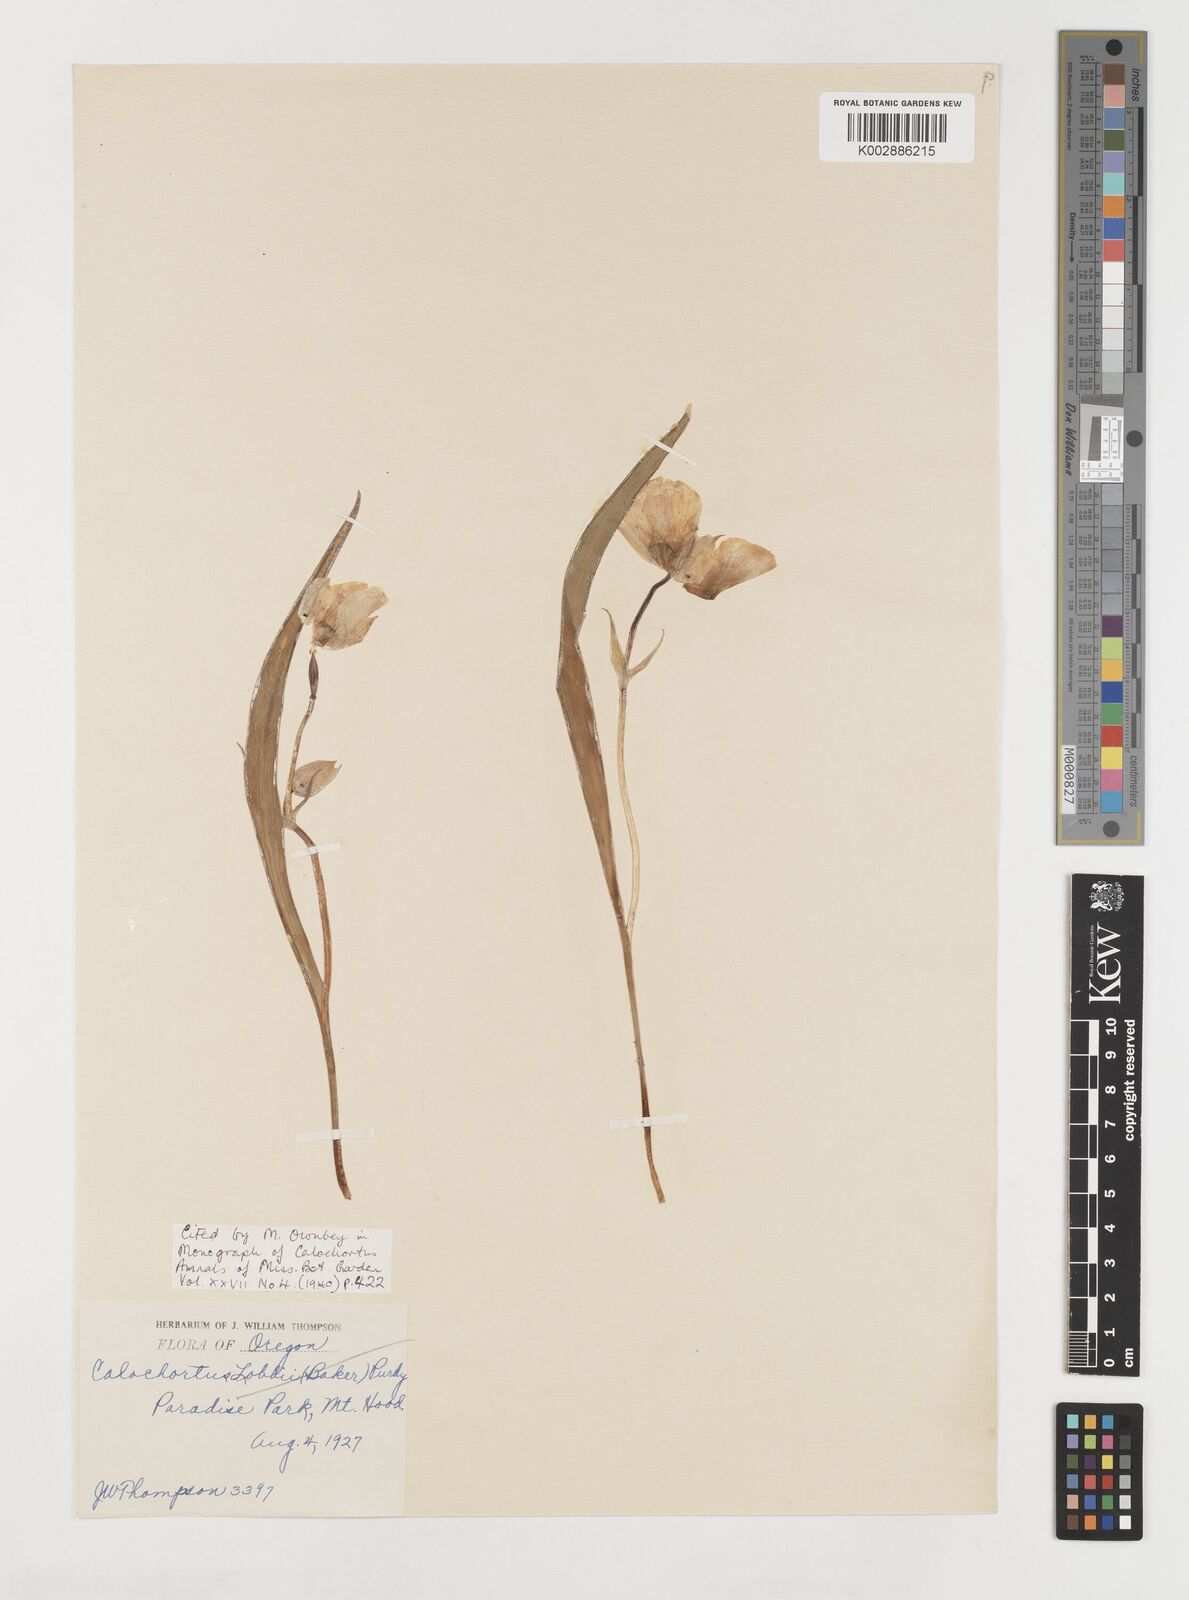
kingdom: Plantae
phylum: Tracheophyta
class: Liliopsida
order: Liliales
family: Liliaceae
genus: Calochortus
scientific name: Calochortus subalpinus
